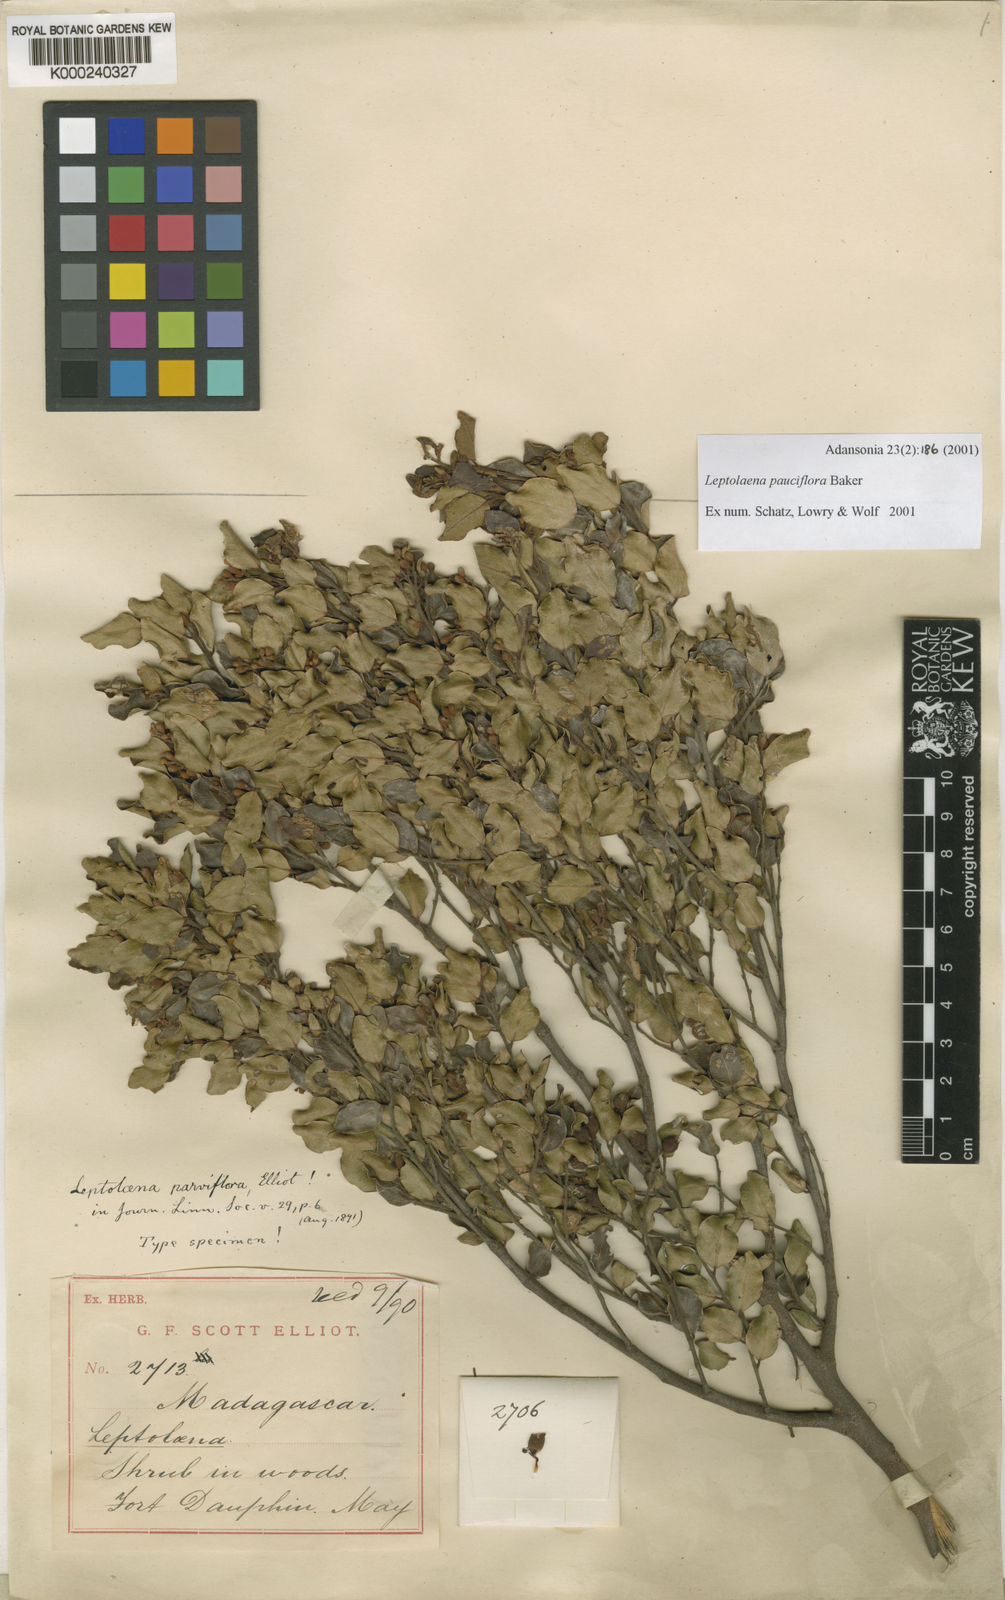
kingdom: Plantae
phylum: Tracheophyta
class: Magnoliopsida
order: Malvales
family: Sarcolaenaceae
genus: Leptolaena
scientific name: Leptolaena pauciflora
